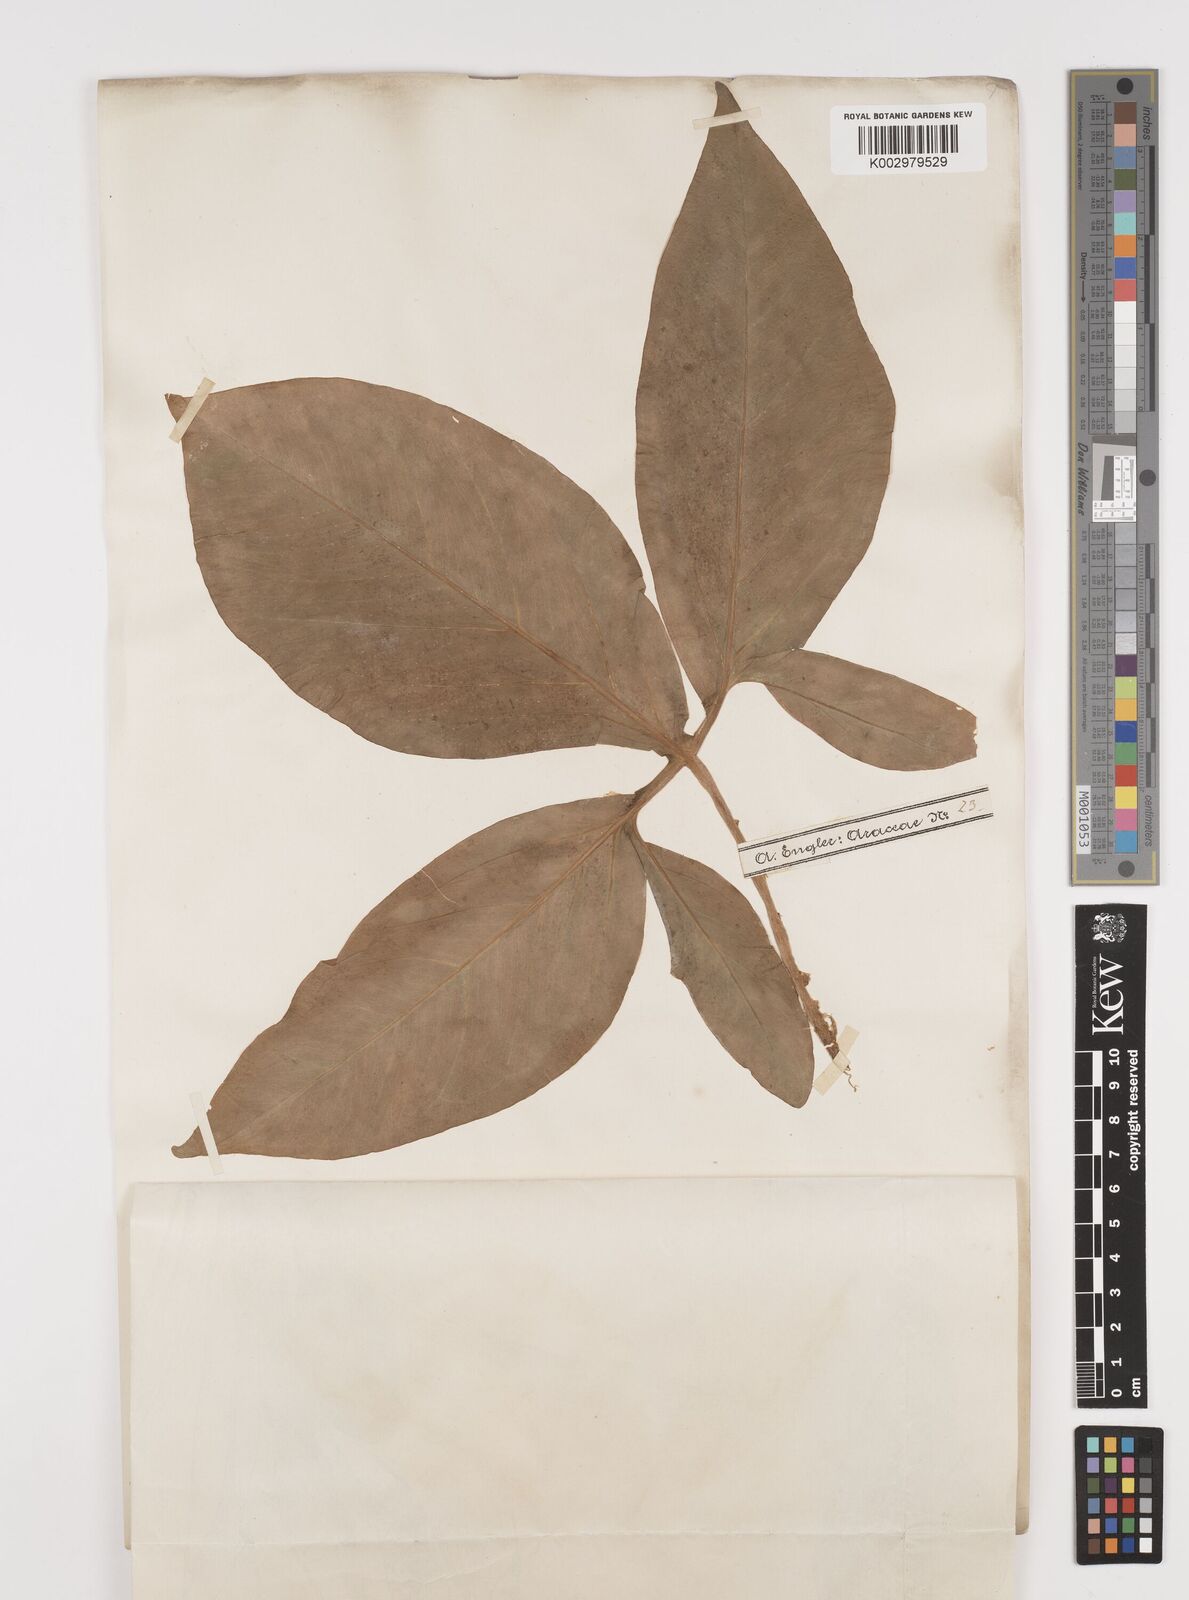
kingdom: Plantae
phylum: Tracheophyta
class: Liliopsida
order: Alismatales
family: Araceae
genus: Syngonium
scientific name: Syngonium podophyllum
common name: American evergreen
